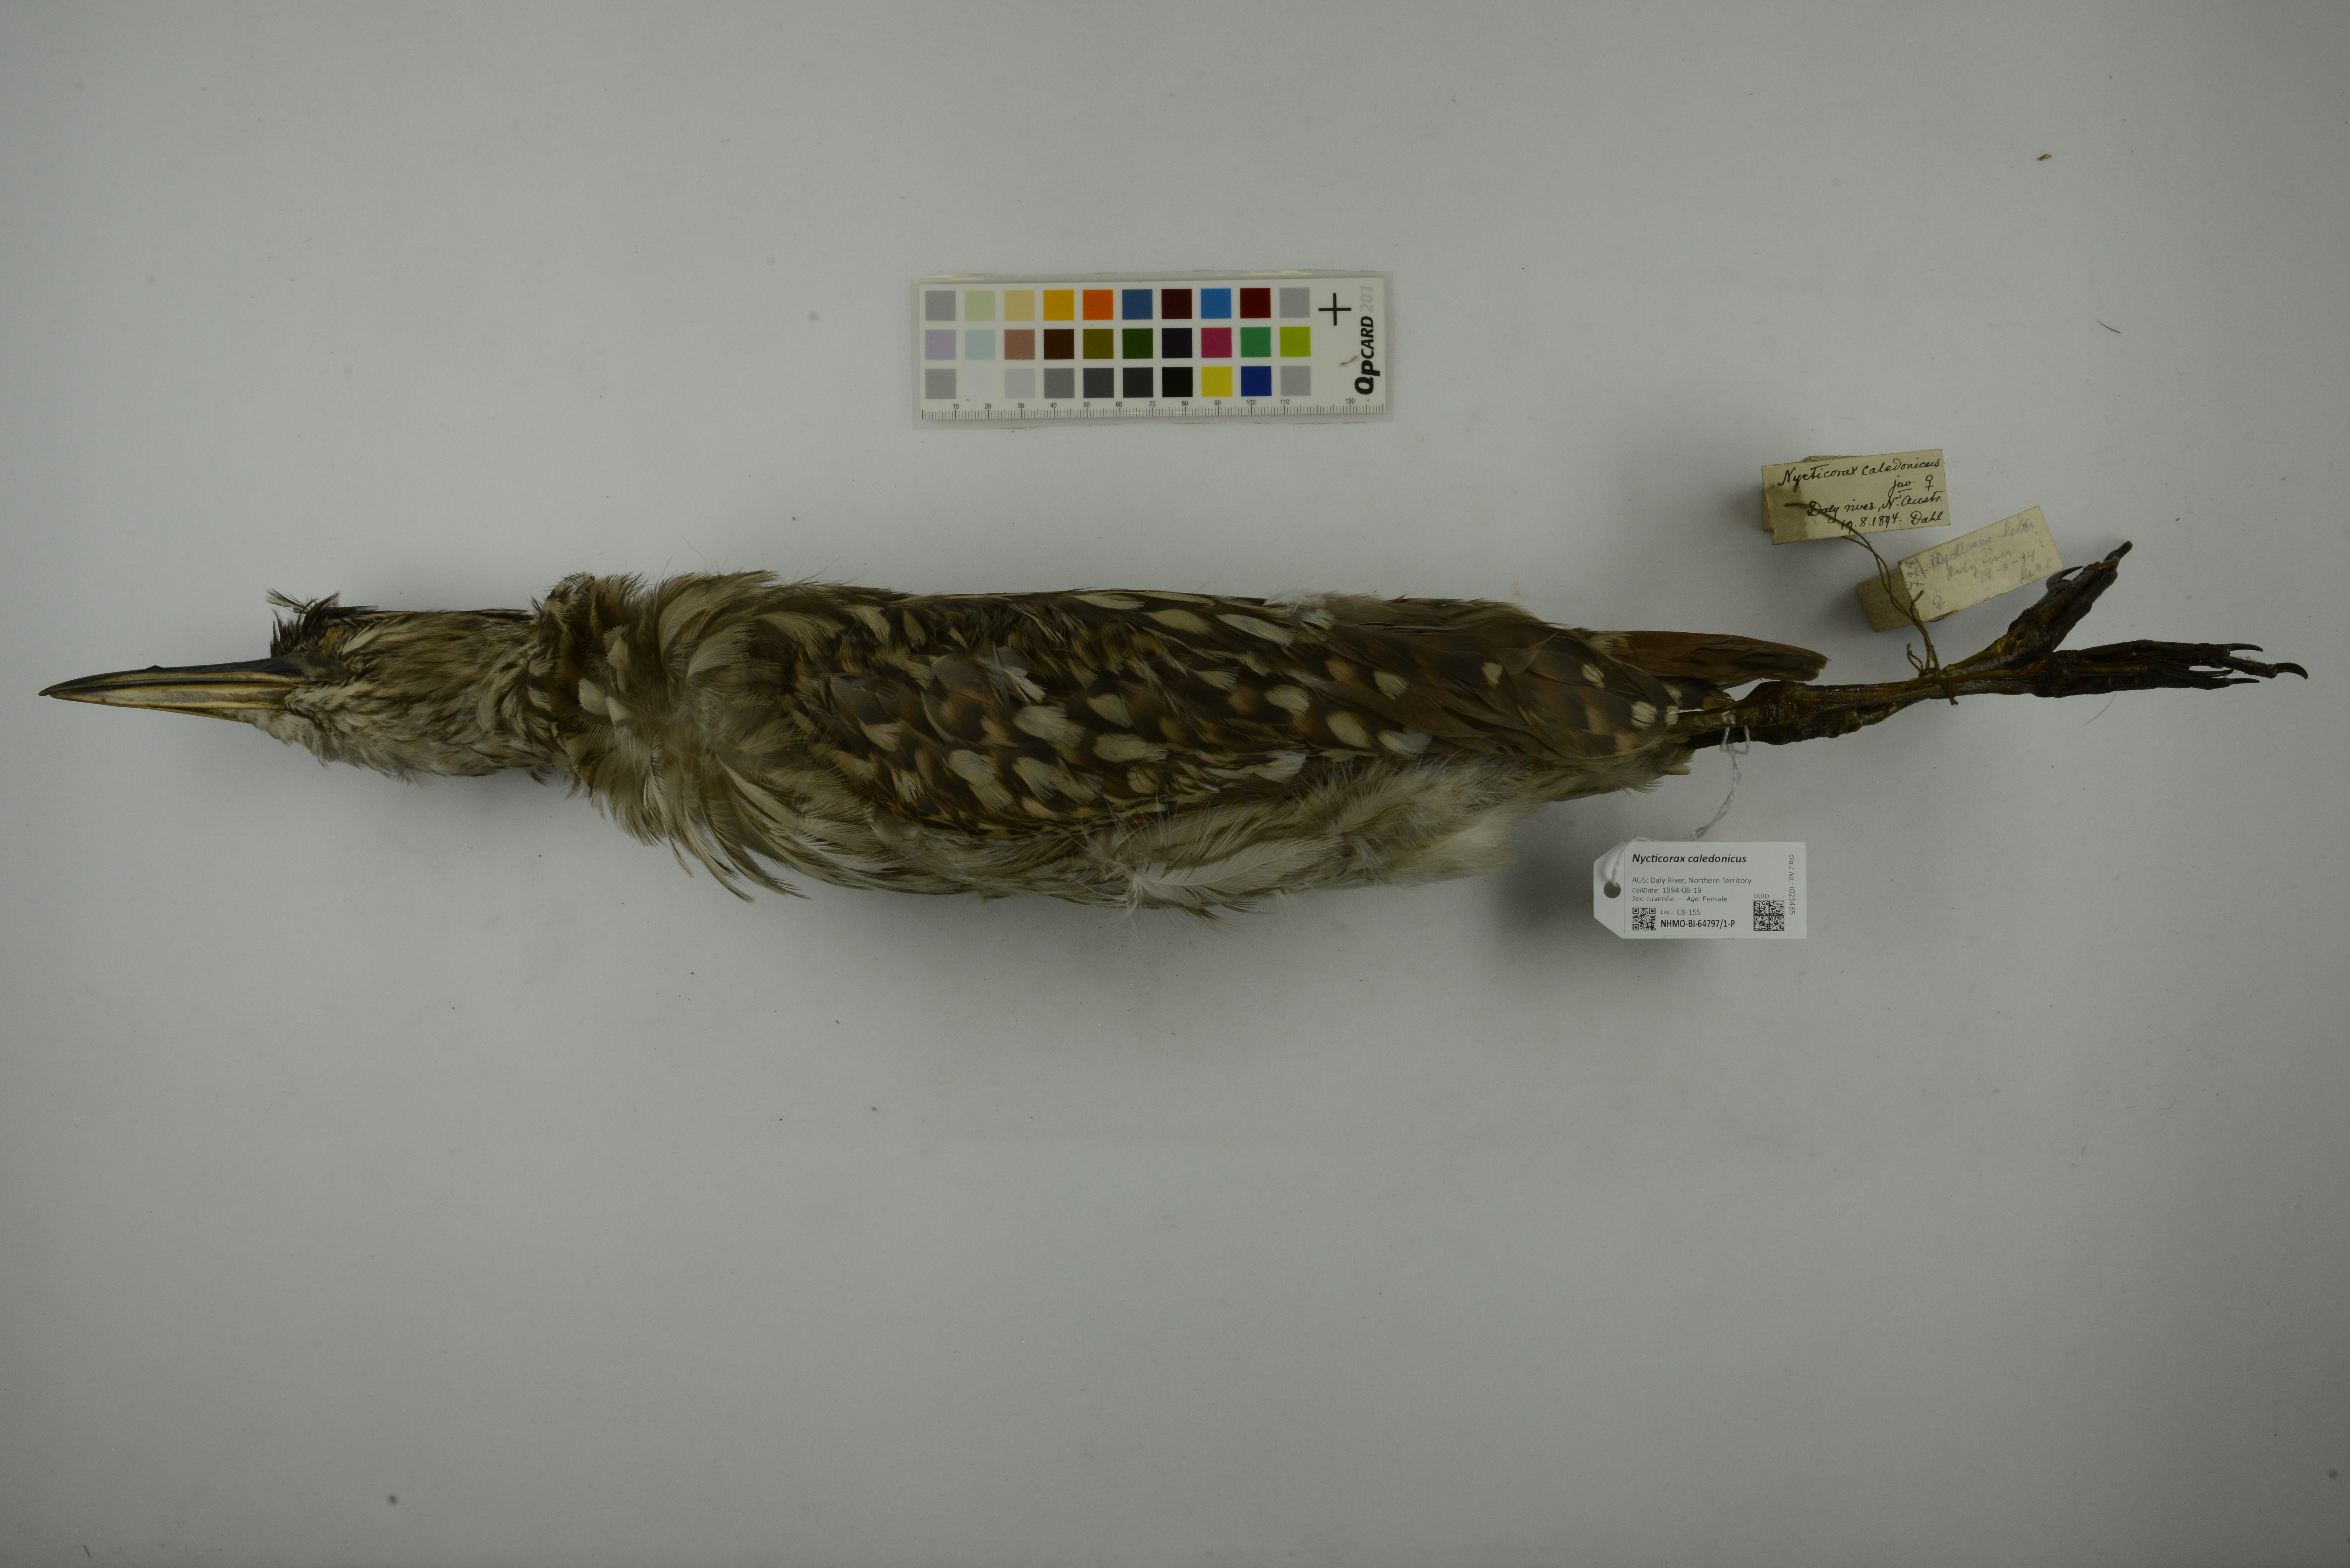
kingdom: Animalia
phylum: Chordata
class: Aves
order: Pelecaniformes
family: Ardeidae
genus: Nycticorax
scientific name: Nycticorax caledonicus
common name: Rufous night-heron
